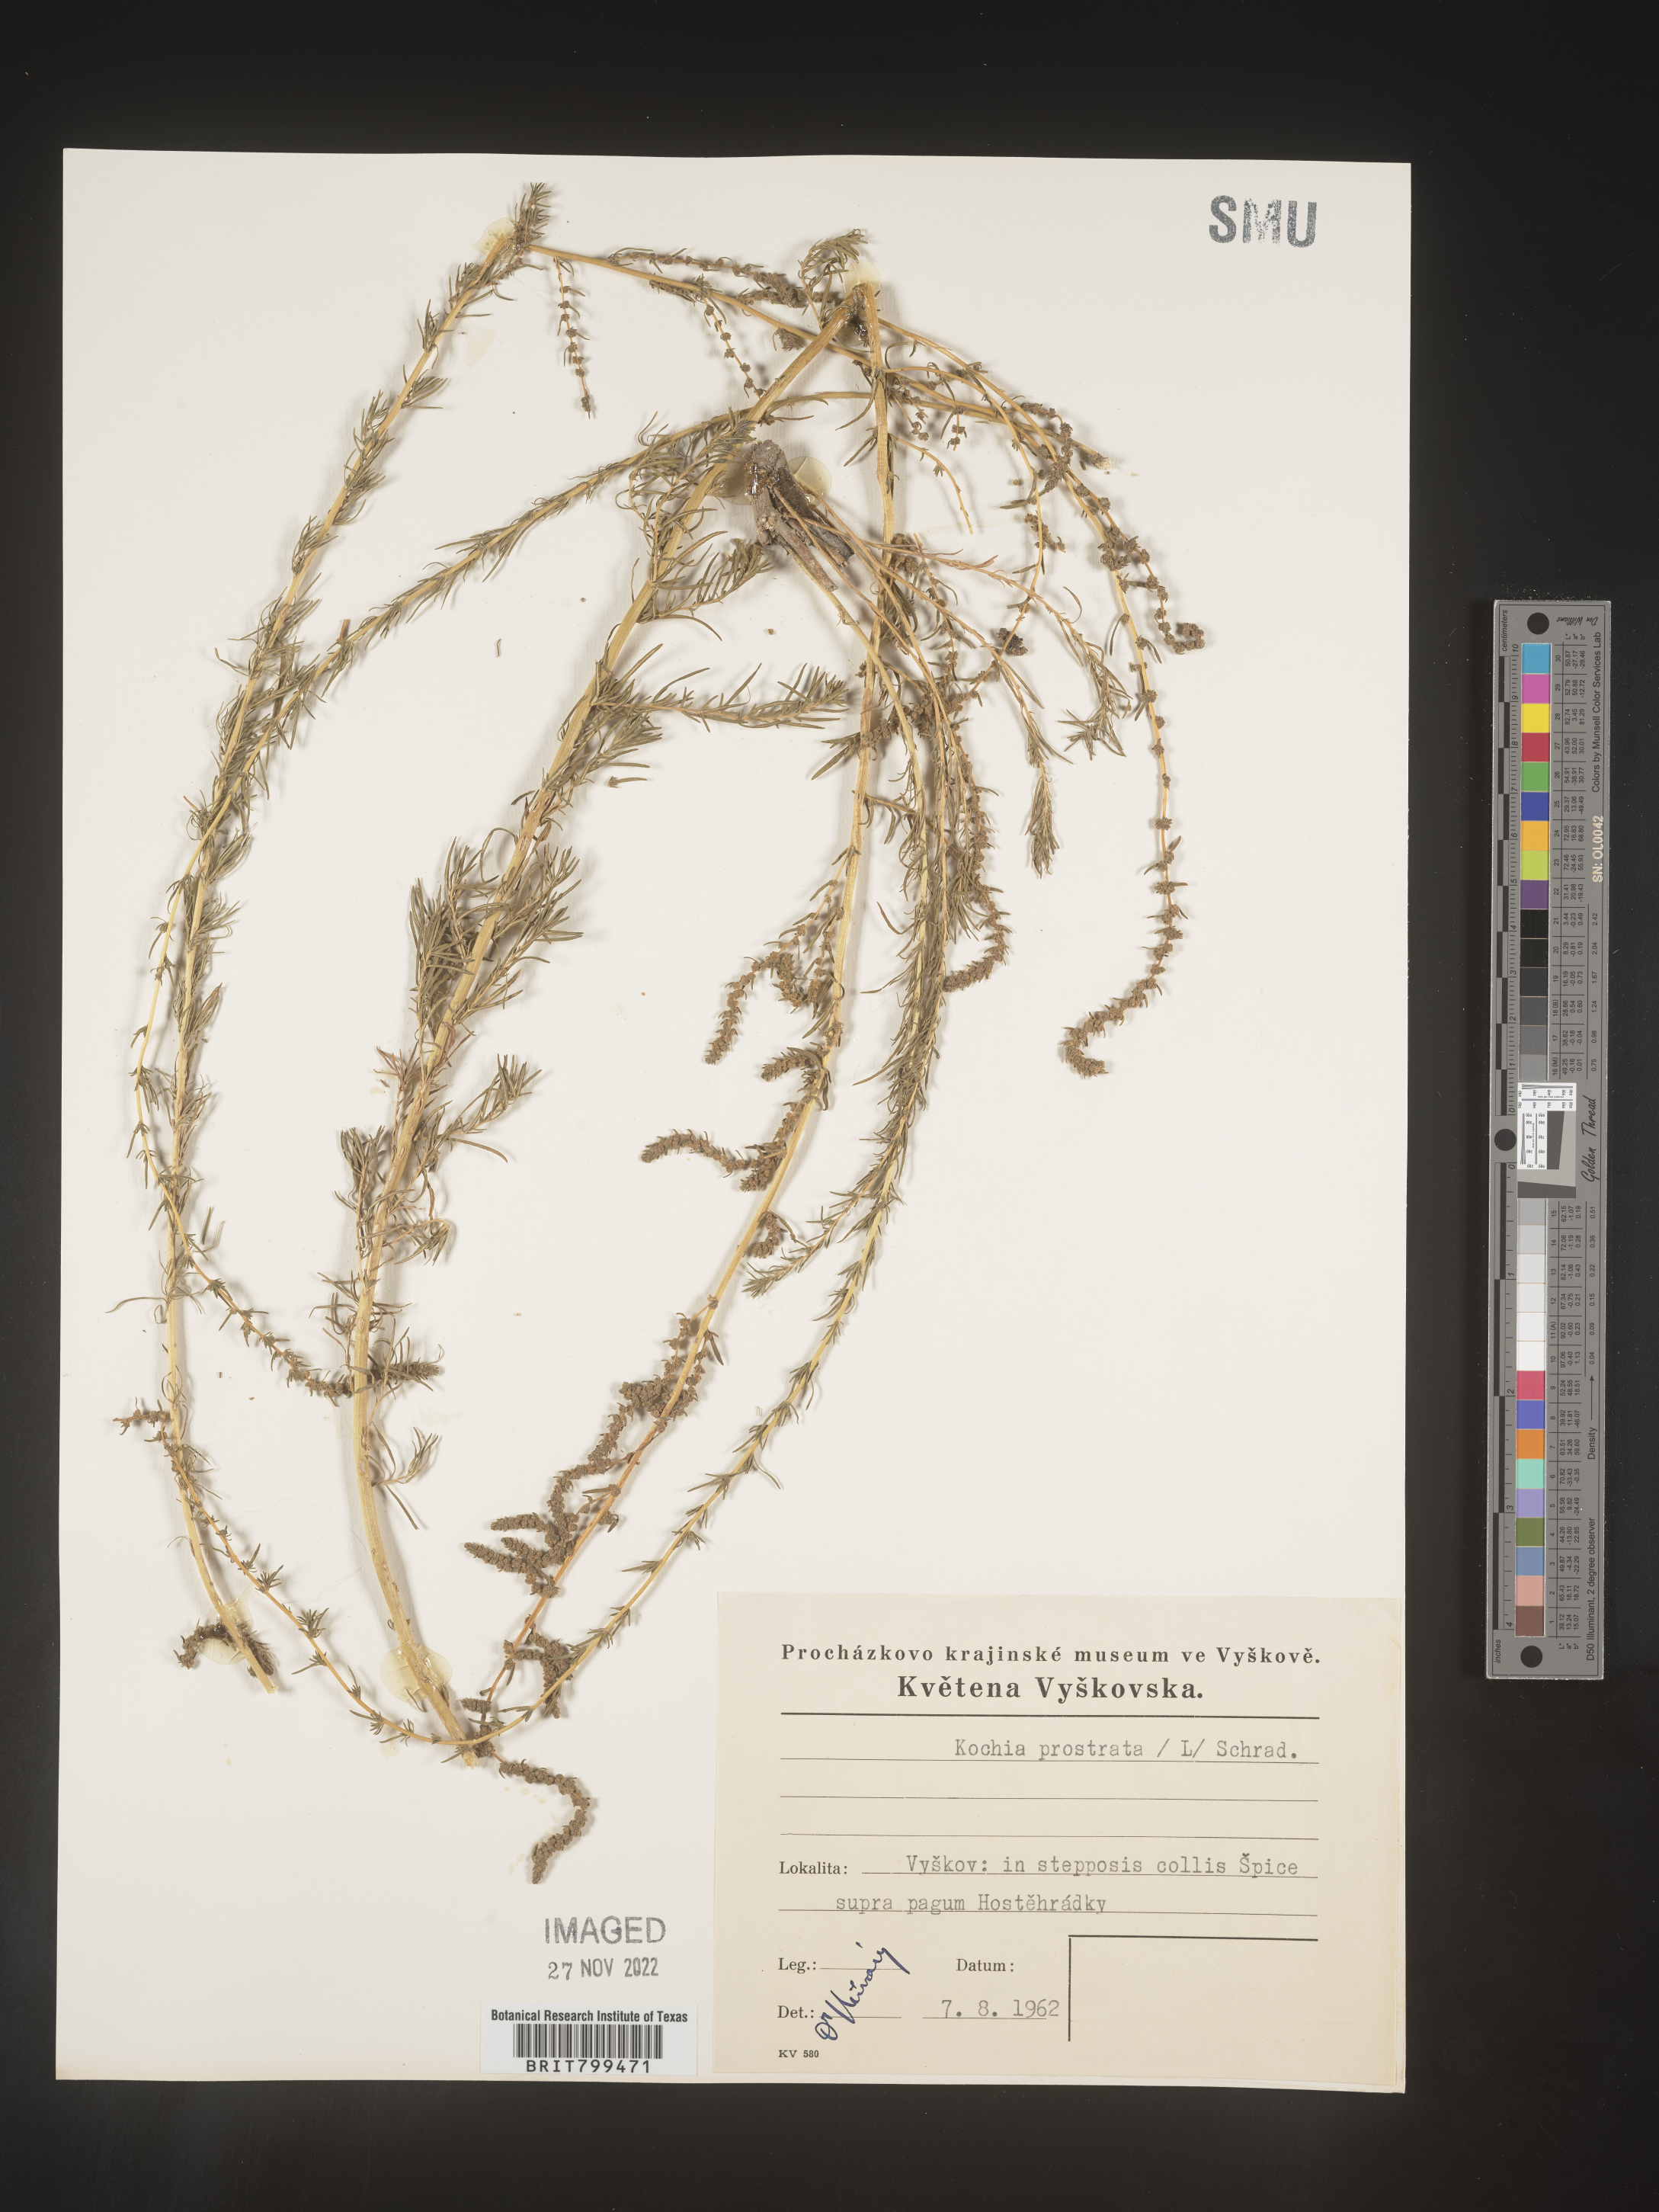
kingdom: Plantae
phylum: Tracheophyta
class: Magnoliopsida
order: Caryophyllales
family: Amaranthaceae
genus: Bassia
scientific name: Bassia
